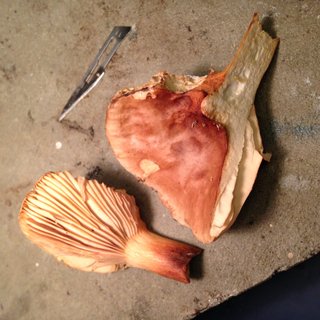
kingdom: Fungi
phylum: Basidiomycota
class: Agaricomycetes
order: Russulales
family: Russulaceae
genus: Lactarius
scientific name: Lactarius subdulcis
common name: sødlig mælkehat
